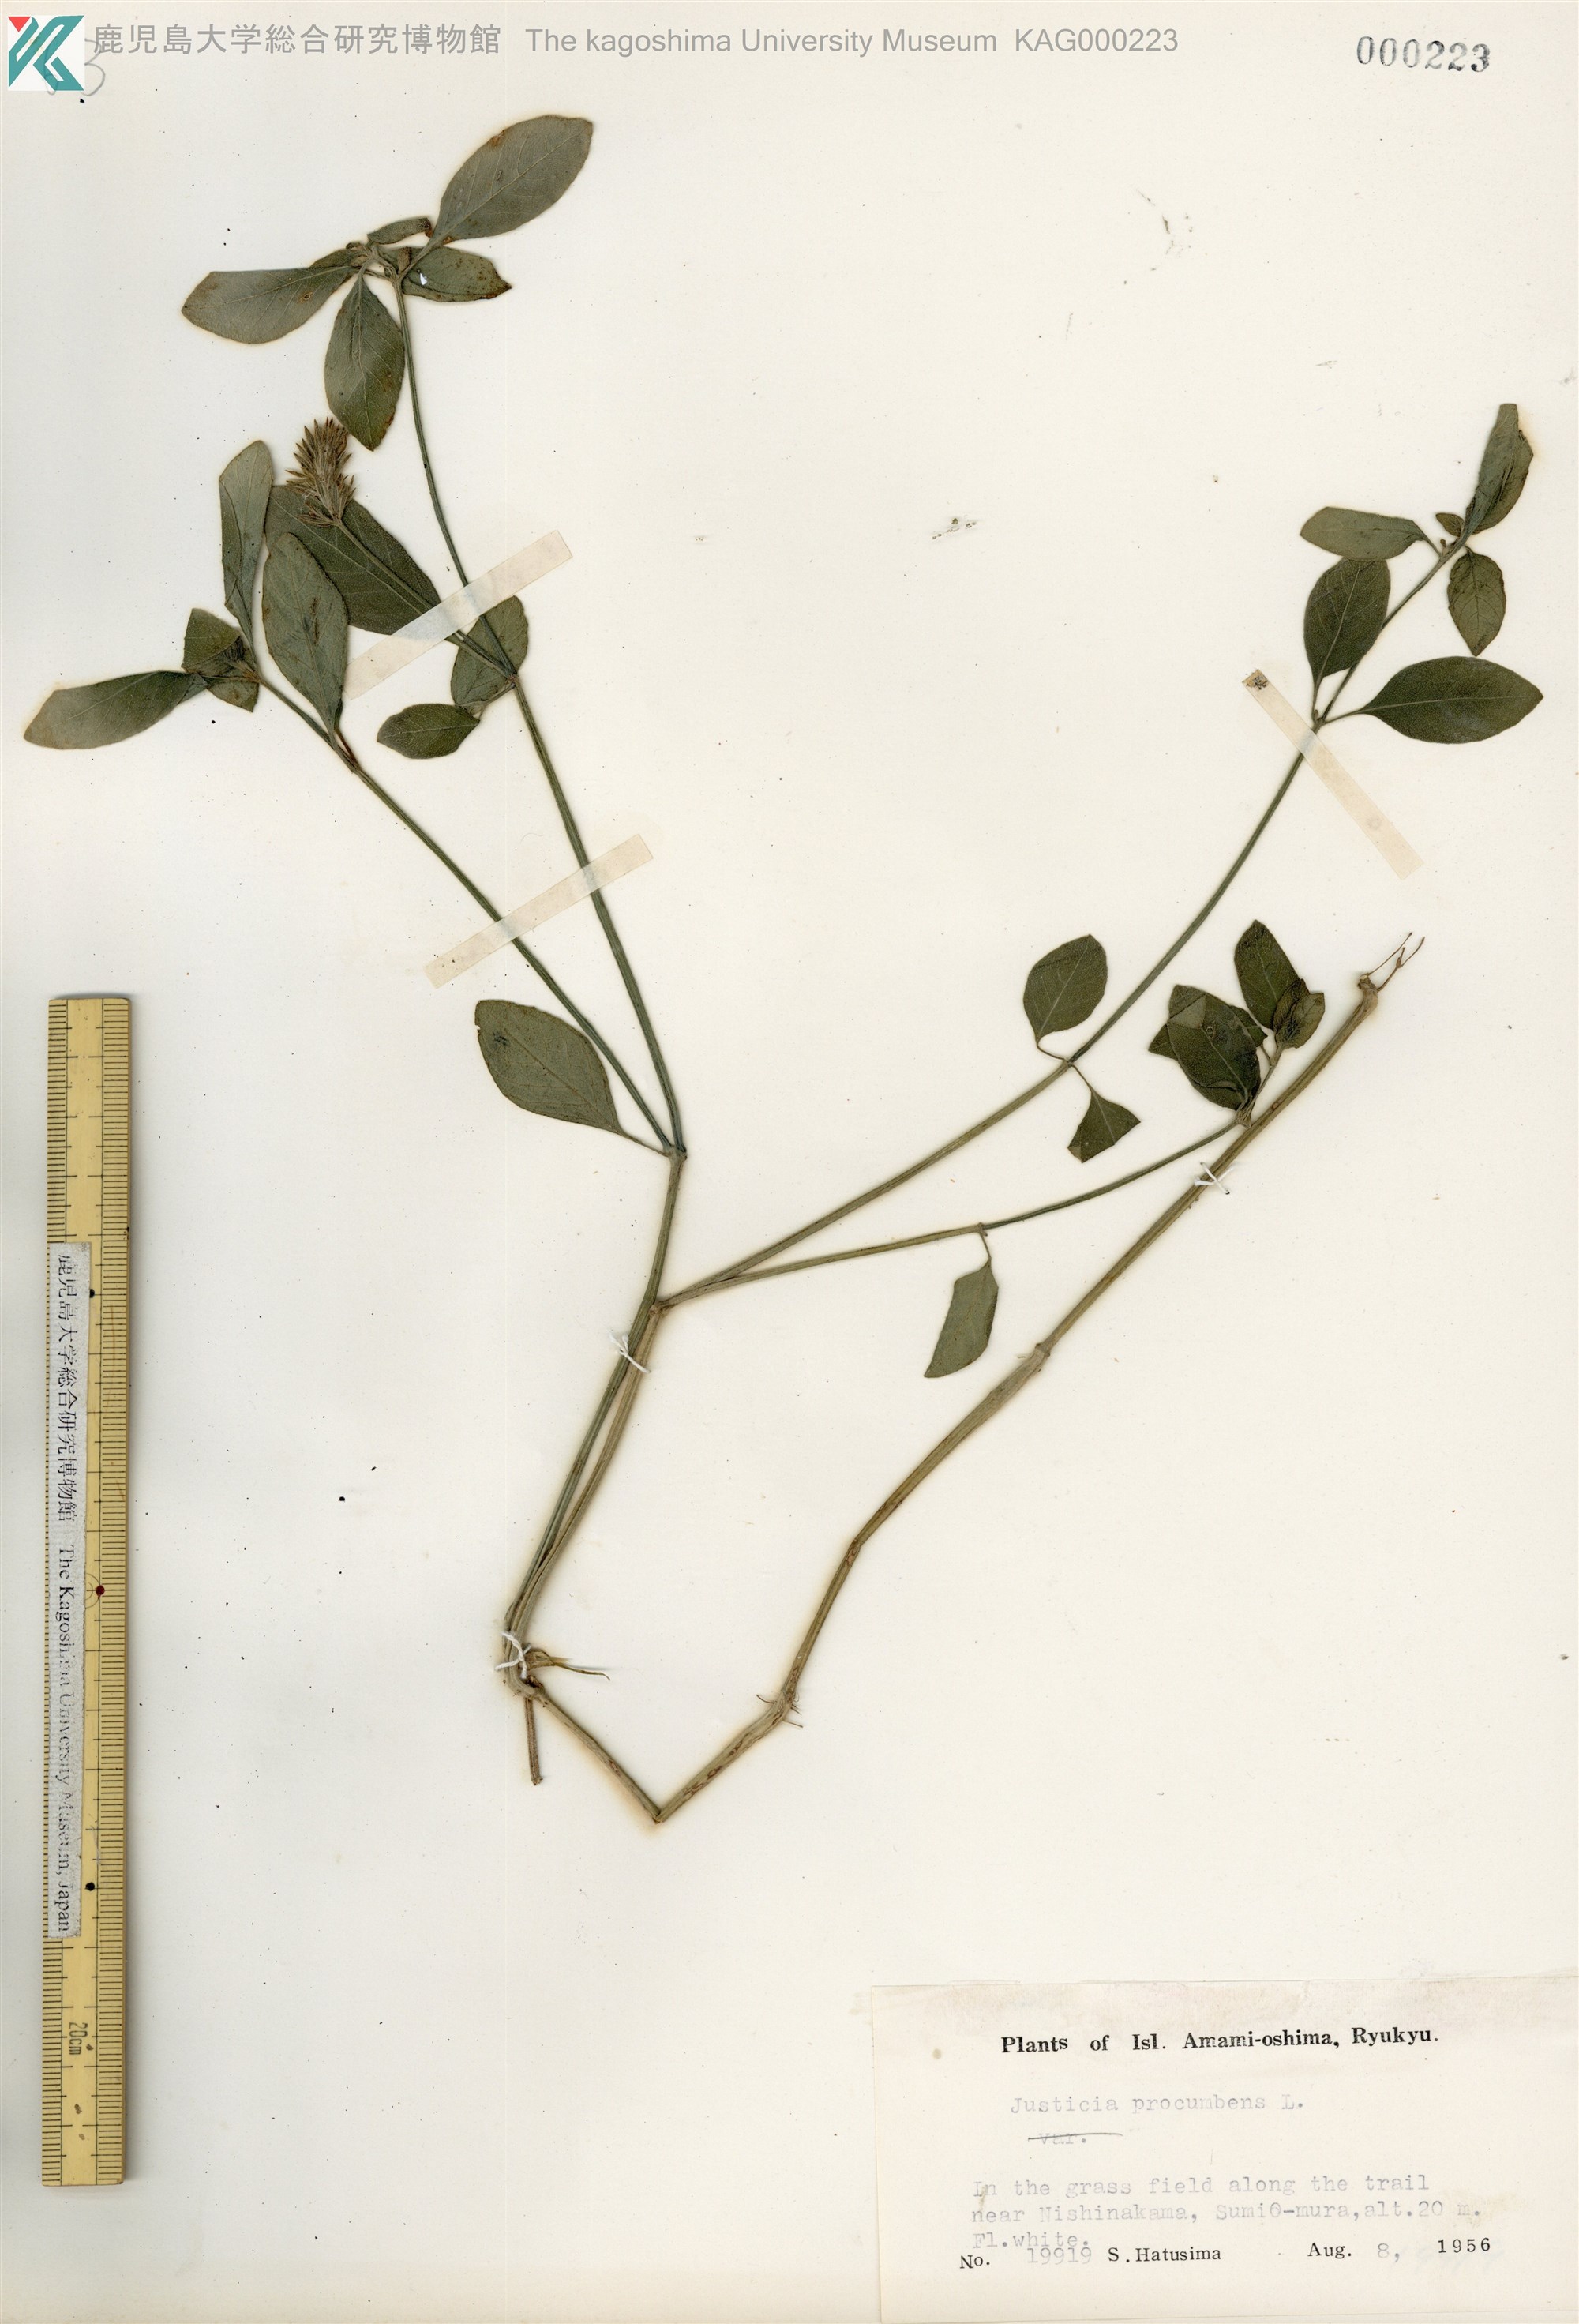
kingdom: Plantae
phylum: Tracheophyta
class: Magnoliopsida
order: Lamiales
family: Acanthaceae
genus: Rostellularia
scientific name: Rostellularia procumbens
